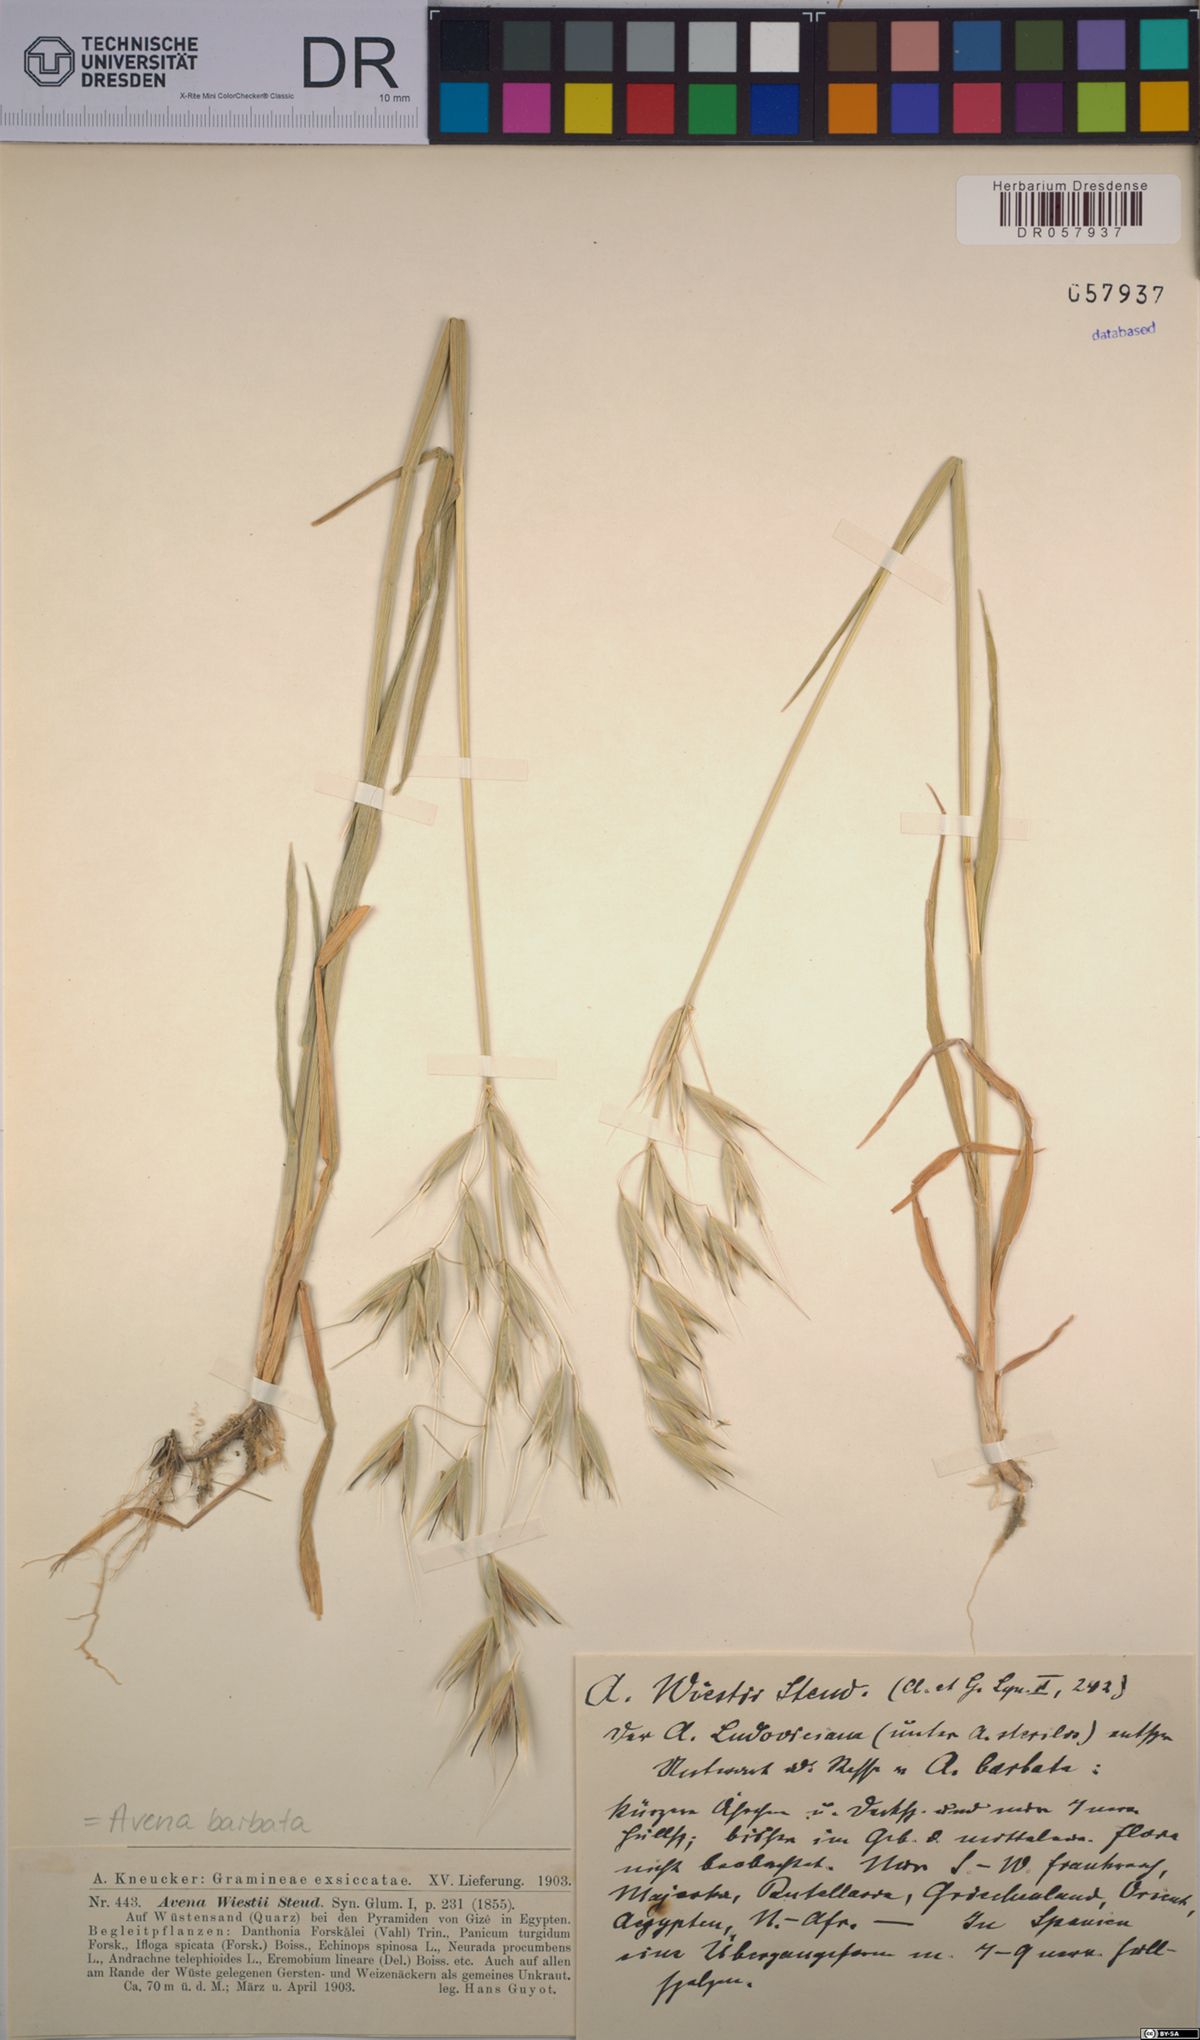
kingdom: Plantae
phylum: Tracheophyta
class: Liliopsida
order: Poales
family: Poaceae
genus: Avena
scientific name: Avena barbata
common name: Slender oat
